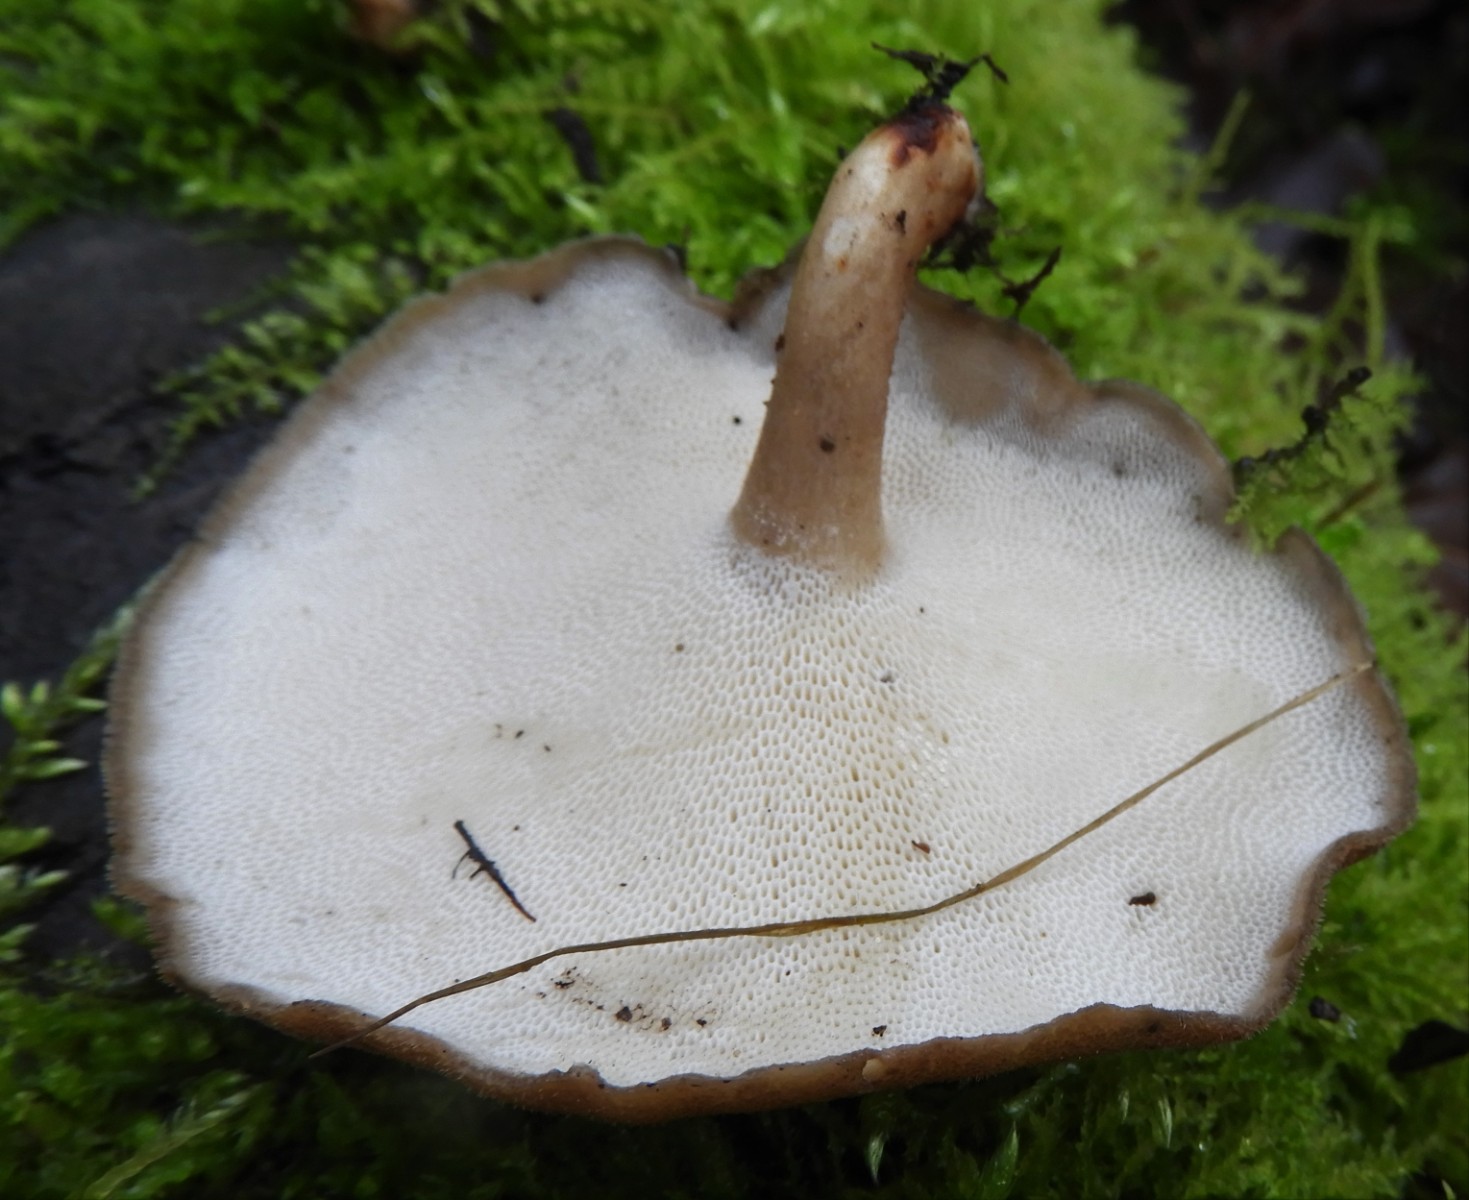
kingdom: Fungi
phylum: Basidiomycota
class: Agaricomycetes
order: Polyporales
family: Polyporaceae
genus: Lentinus
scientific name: Lentinus brumalis
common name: vinter-stilkporesvamp
